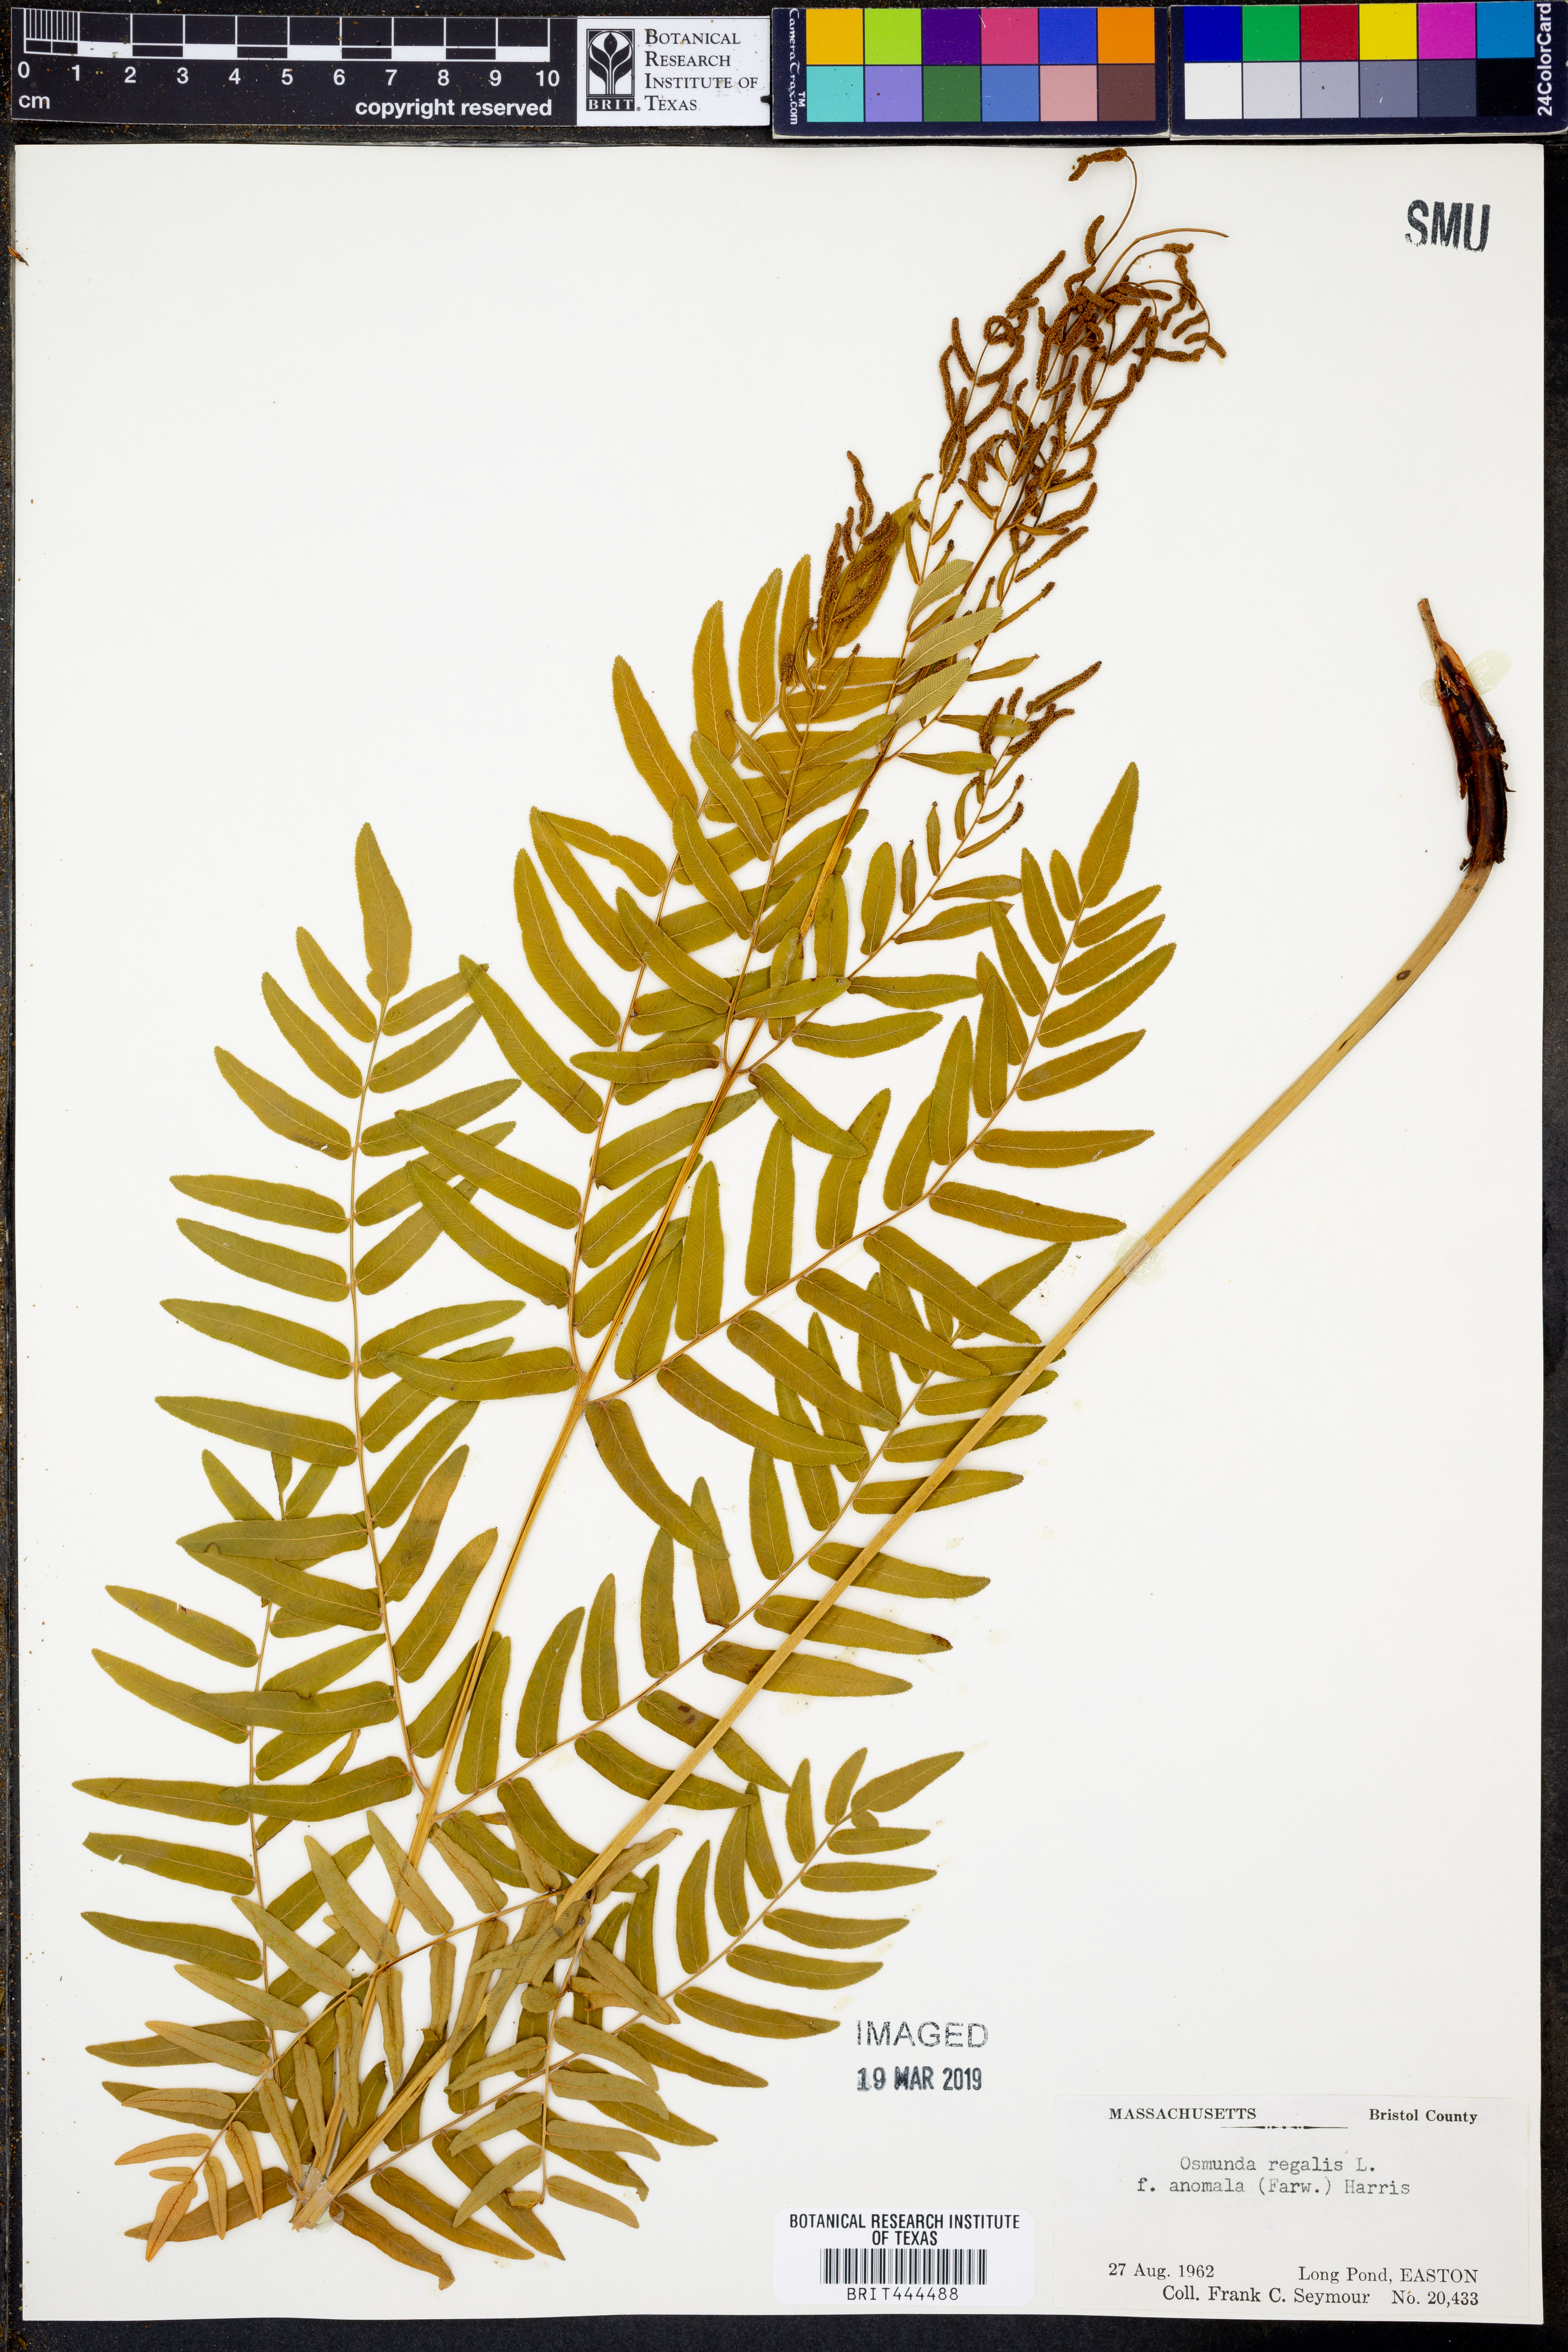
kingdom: Plantae
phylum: Tracheophyta
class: Polypodiopsida
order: Osmundales
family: Osmundaceae
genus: Osmunda
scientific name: Osmunda spectabilis
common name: American royal fern
